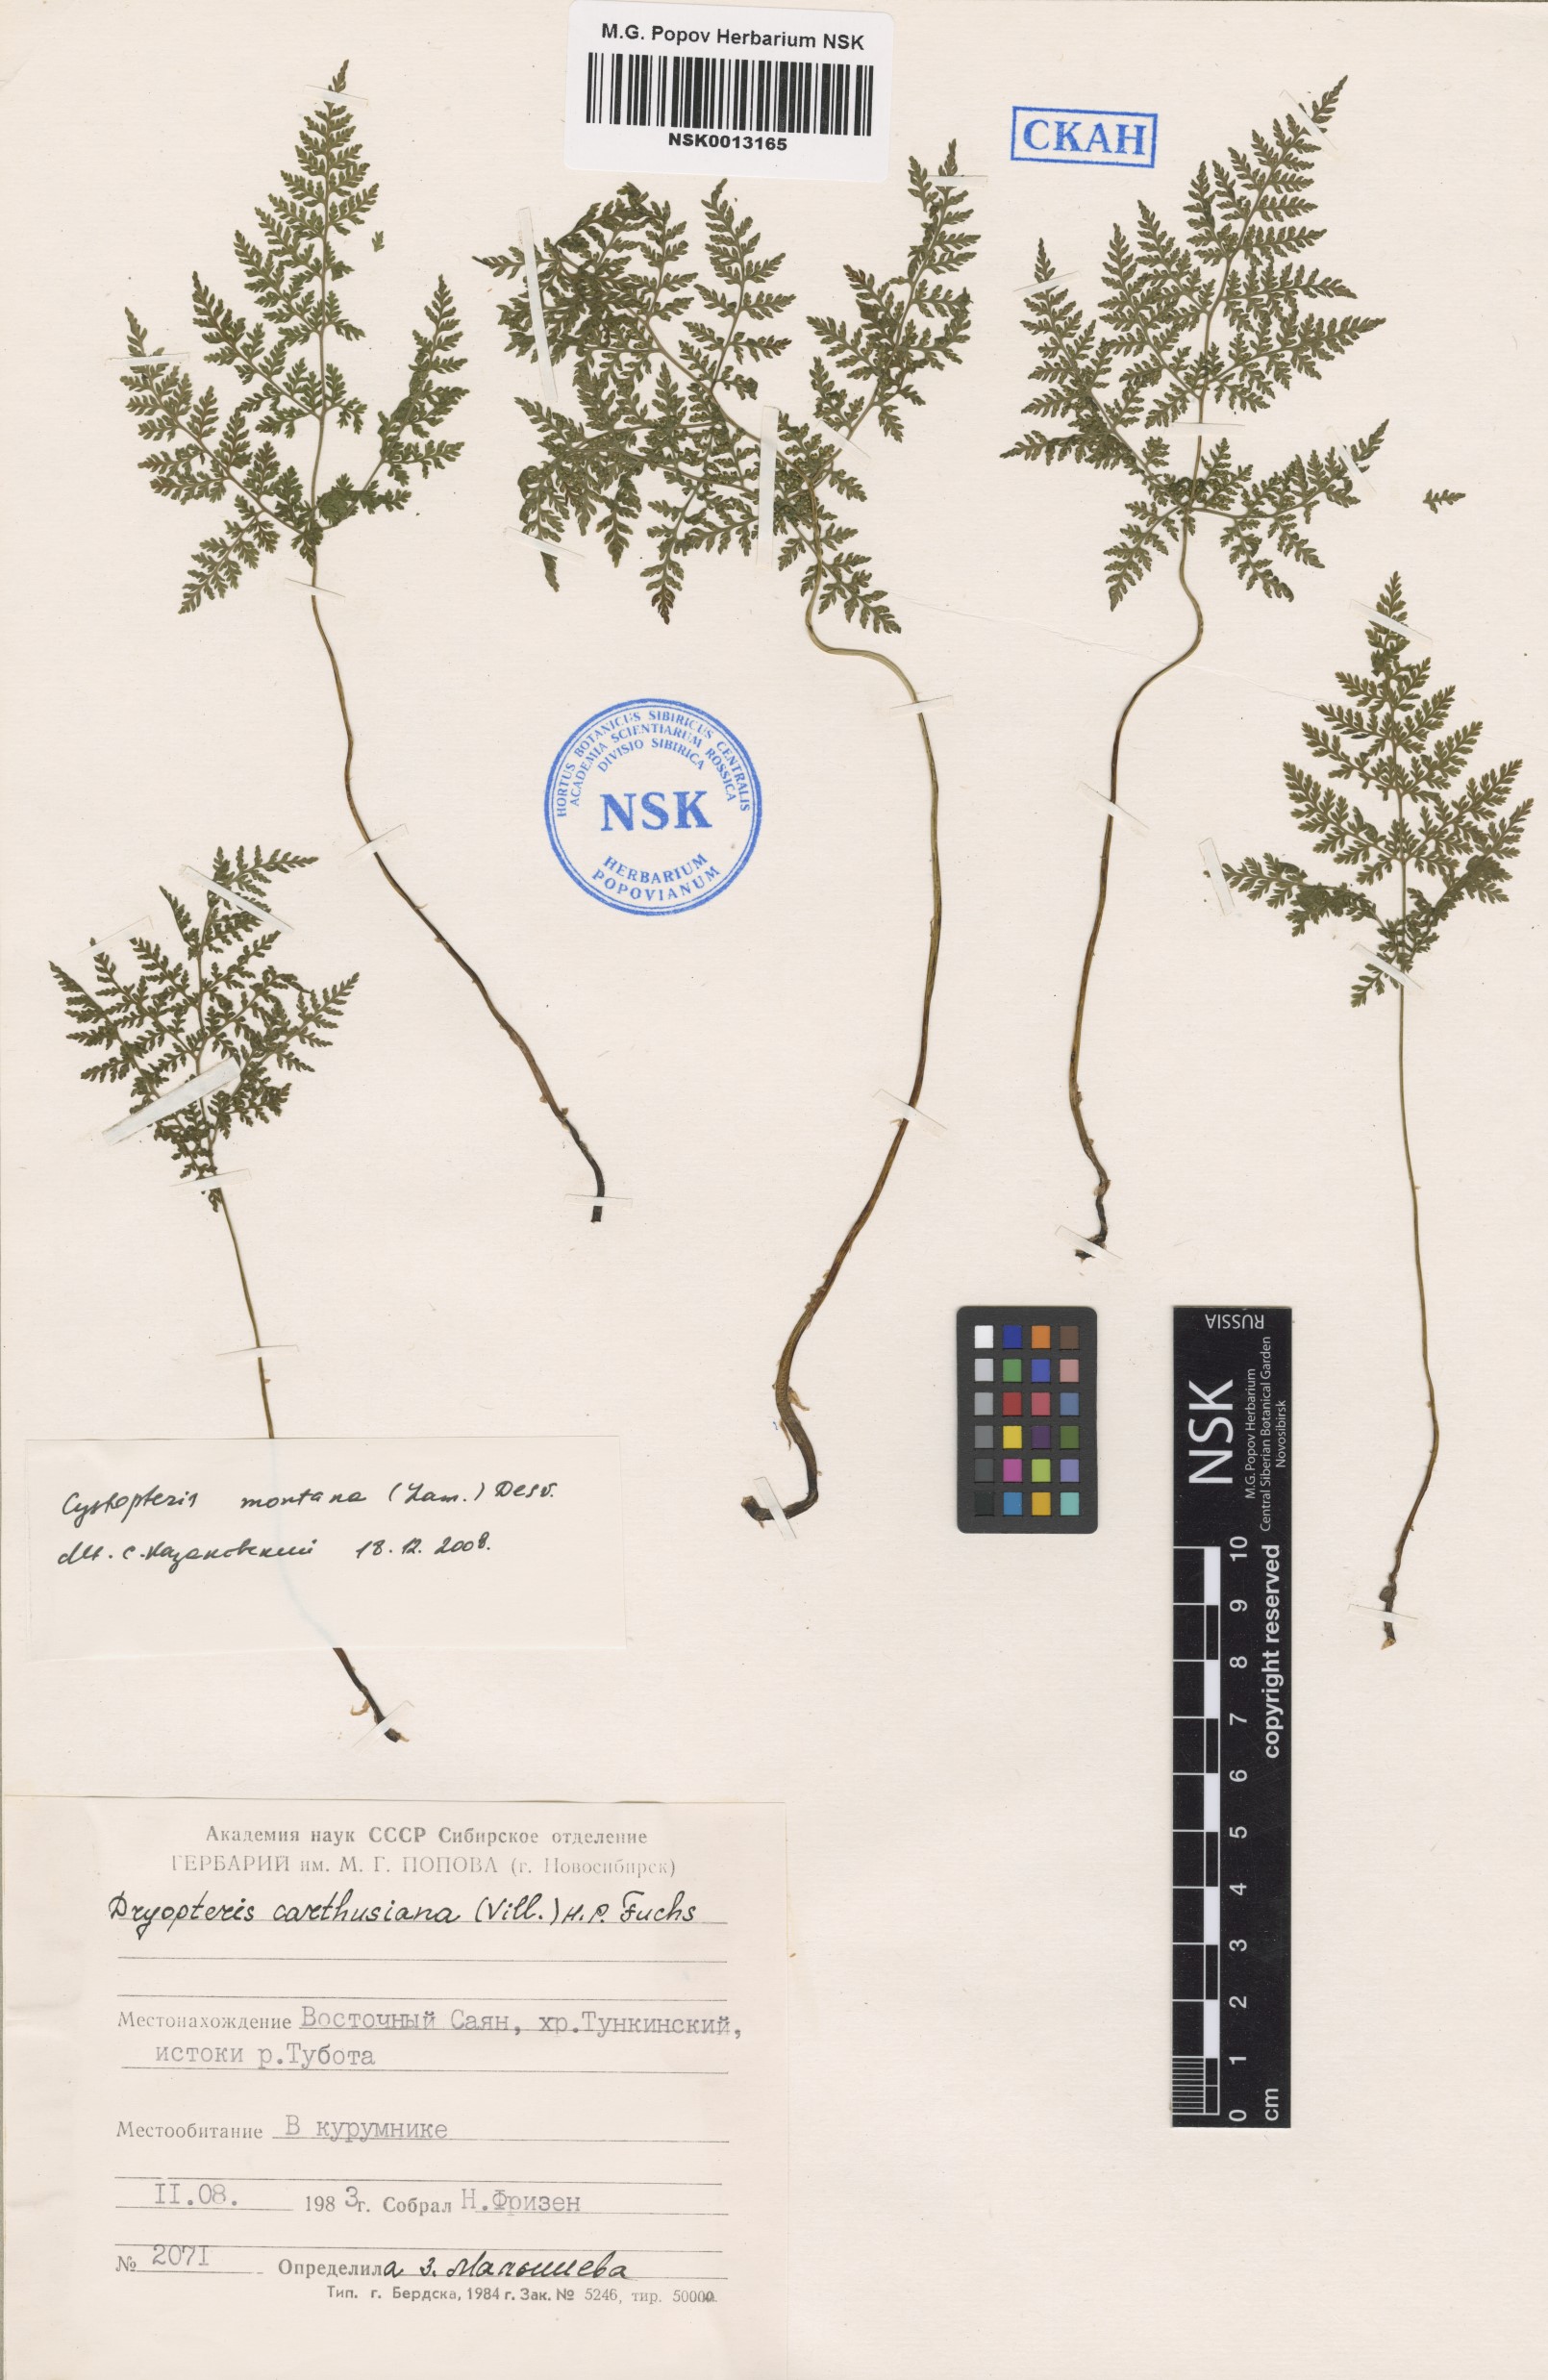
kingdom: Plantae
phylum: Tracheophyta
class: Polypodiopsida
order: Polypodiales
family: Cystopteridaceae
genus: Cystopteris
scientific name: Cystopteris montana
